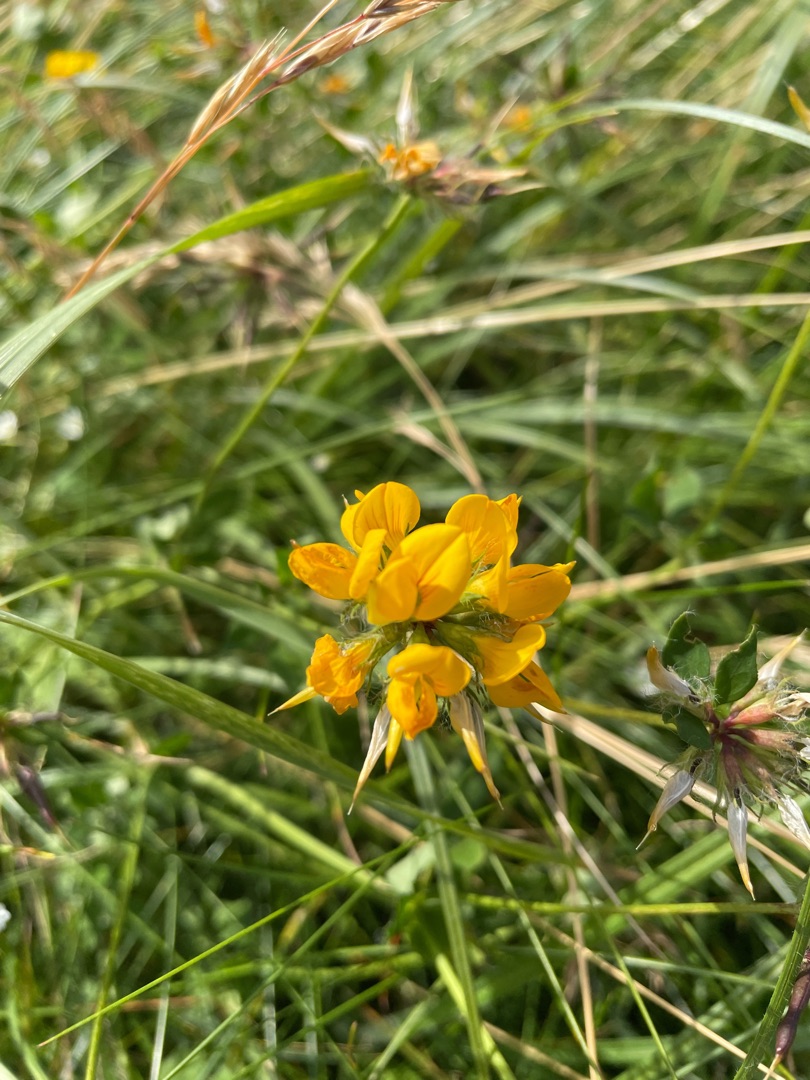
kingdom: Plantae
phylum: Tracheophyta
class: Magnoliopsida
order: Fabales
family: Fabaceae
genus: Lotus
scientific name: Lotus corniculatus
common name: Almindelig kællingetand
